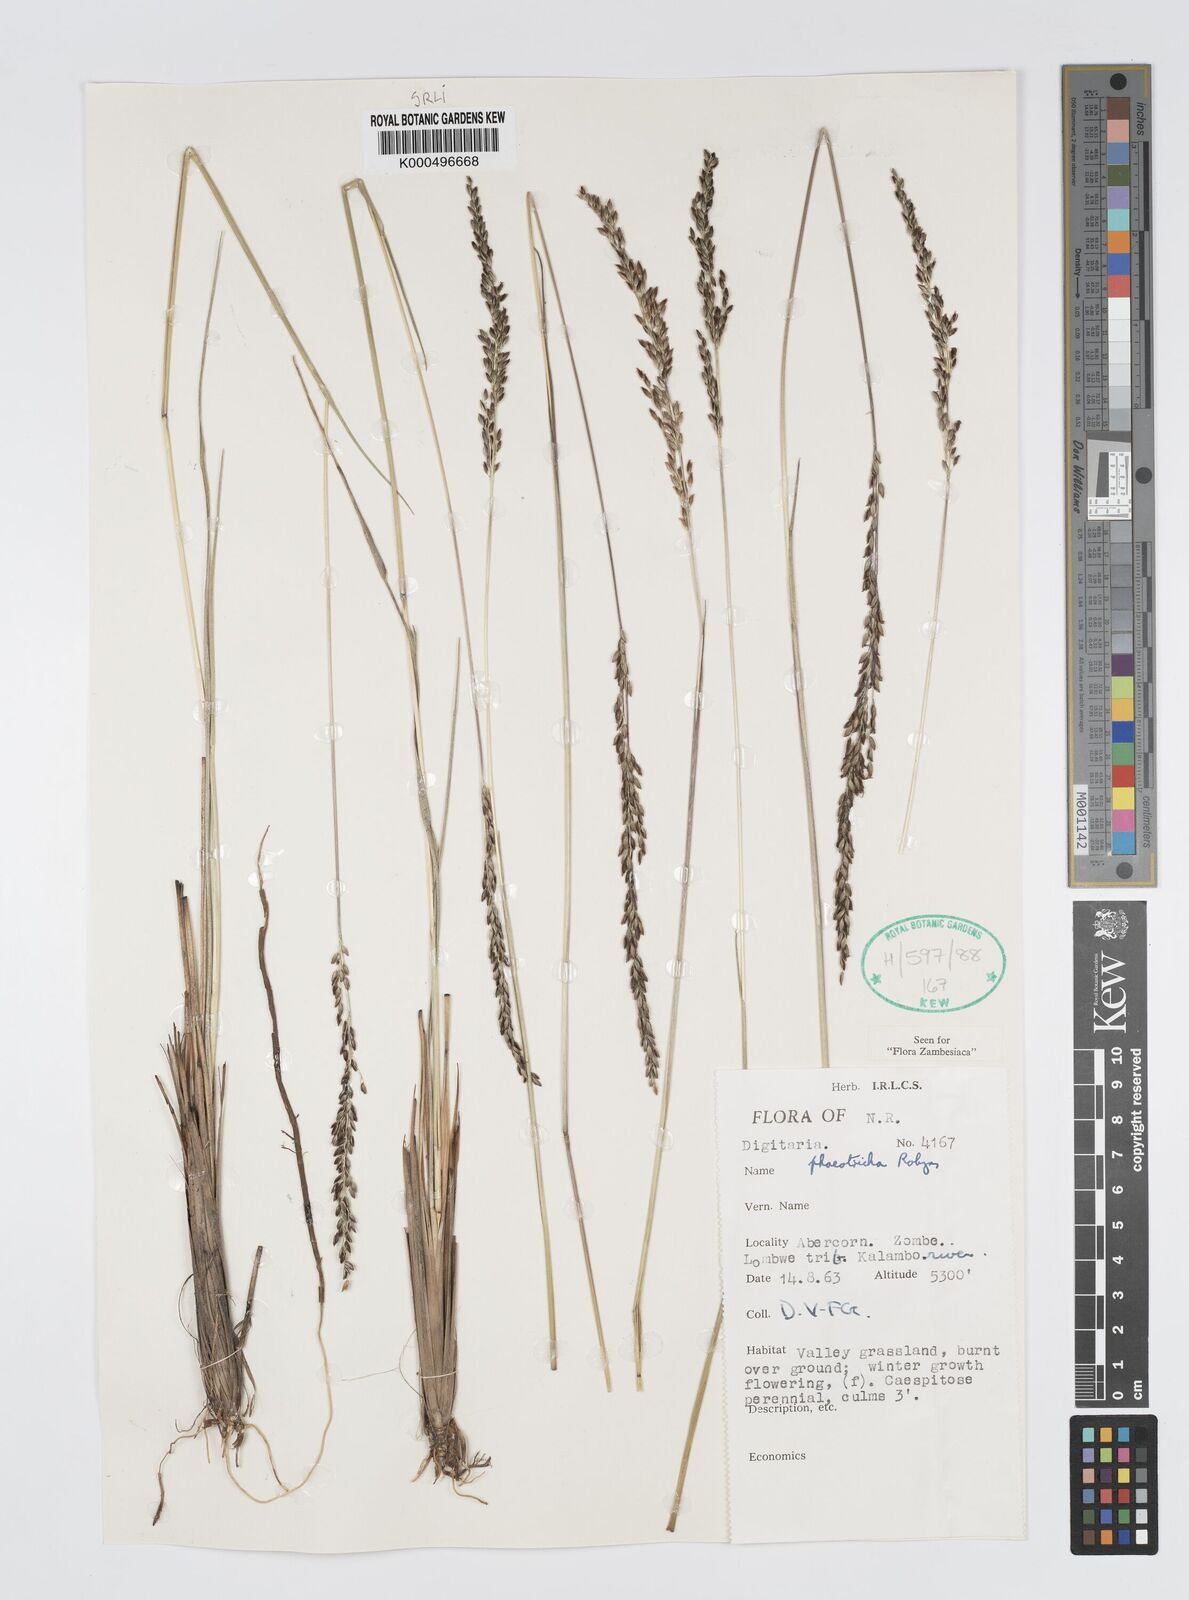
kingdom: Plantae
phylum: Tracheophyta
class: Liliopsida
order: Poales
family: Poaceae
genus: Digitaria
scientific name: Digitaria phaeotricha
